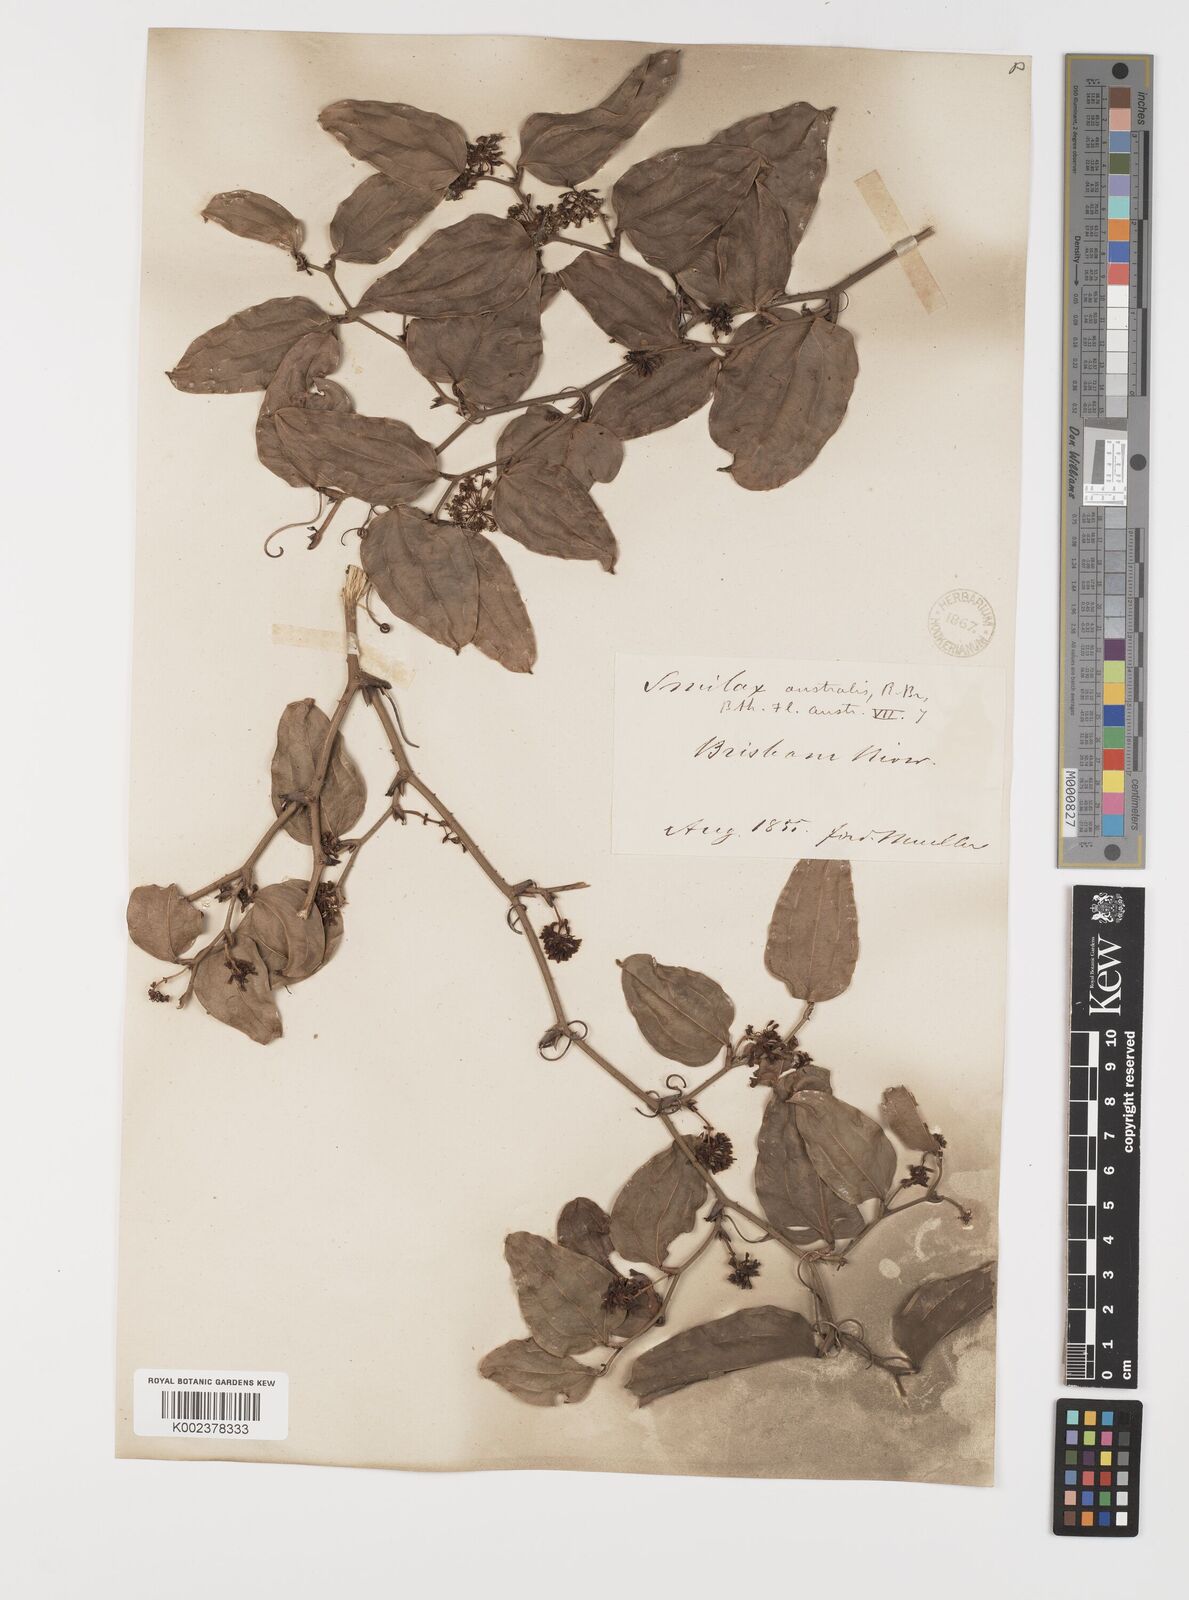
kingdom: Plantae
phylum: Tracheophyta
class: Liliopsida
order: Liliales
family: Smilacaceae
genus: Smilax
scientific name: Smilax australis
